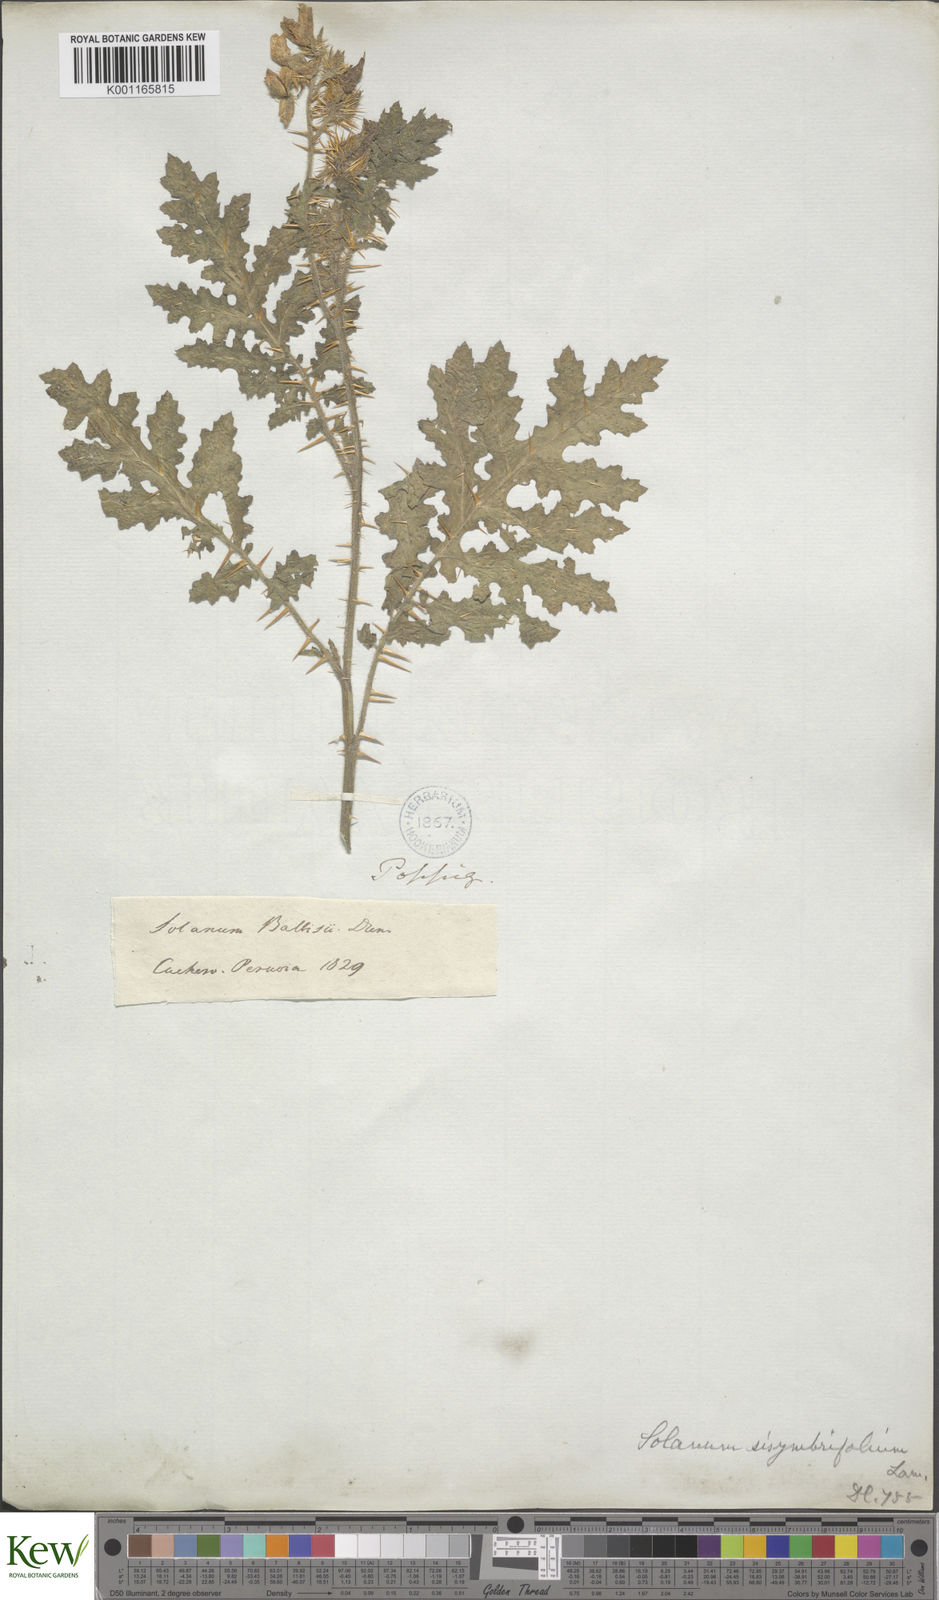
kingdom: Plantae
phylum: Tracheophyta
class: Magnoliopsida
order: Solanales
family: Solanaceae
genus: Solanum
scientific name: Solanum sisymbriifolium
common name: Red buffalo-bur
